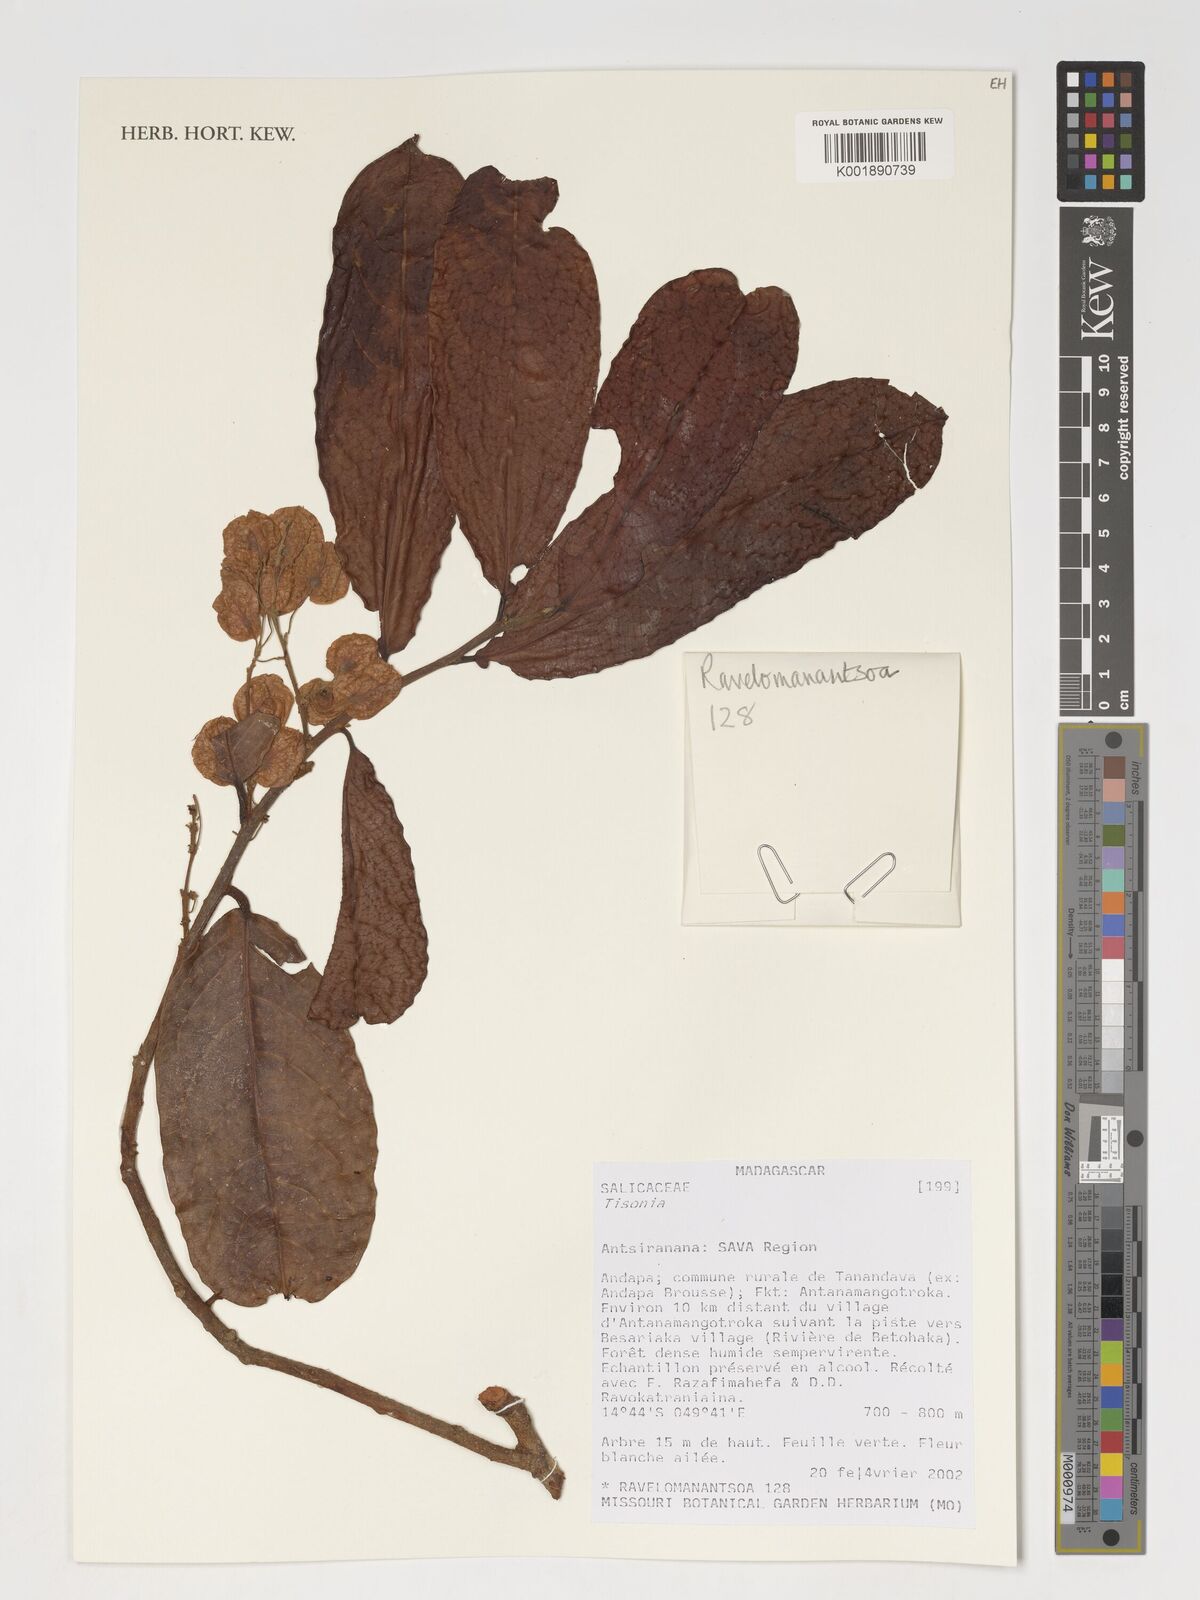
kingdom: Plantae
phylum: Tracheophyta
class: Magnoliopsida
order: Malpighiales
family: Salicaceae
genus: Tisonia
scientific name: Tisonia
